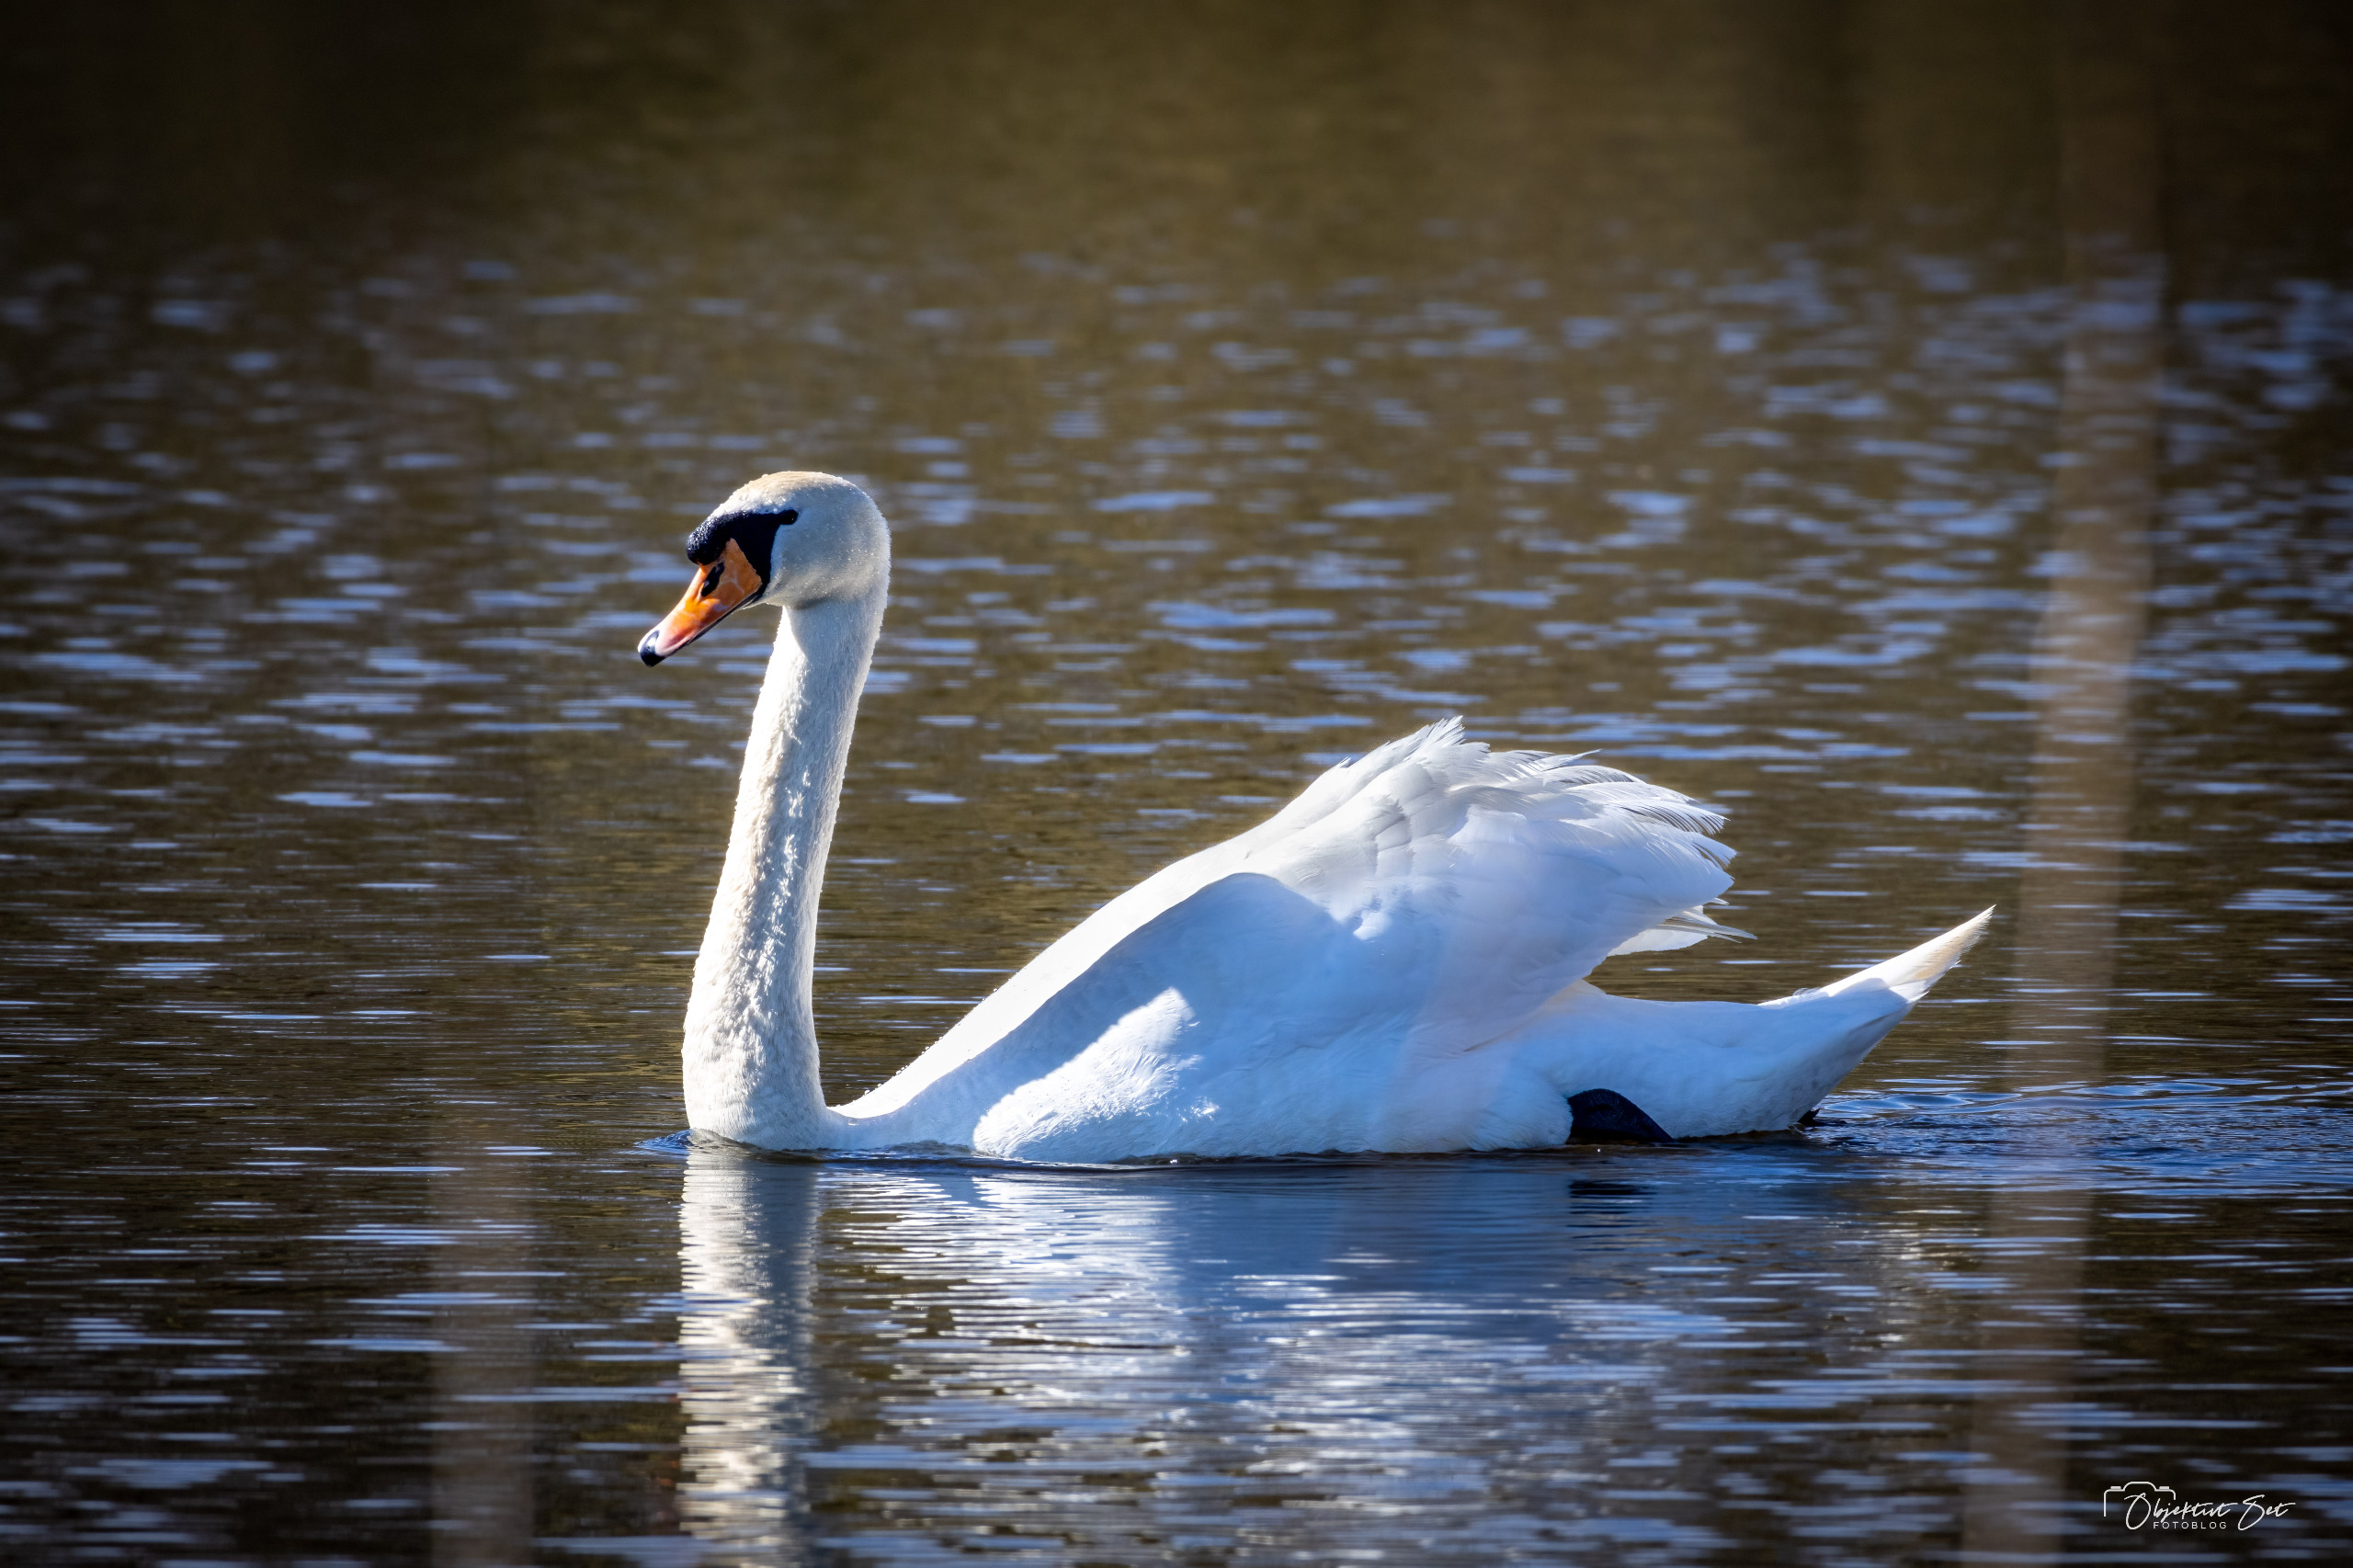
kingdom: Animalia
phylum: Chordata
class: Aves
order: Anseriformes
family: Anatidae
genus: Cygnus
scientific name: Cygnus olor
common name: Knopsvane
